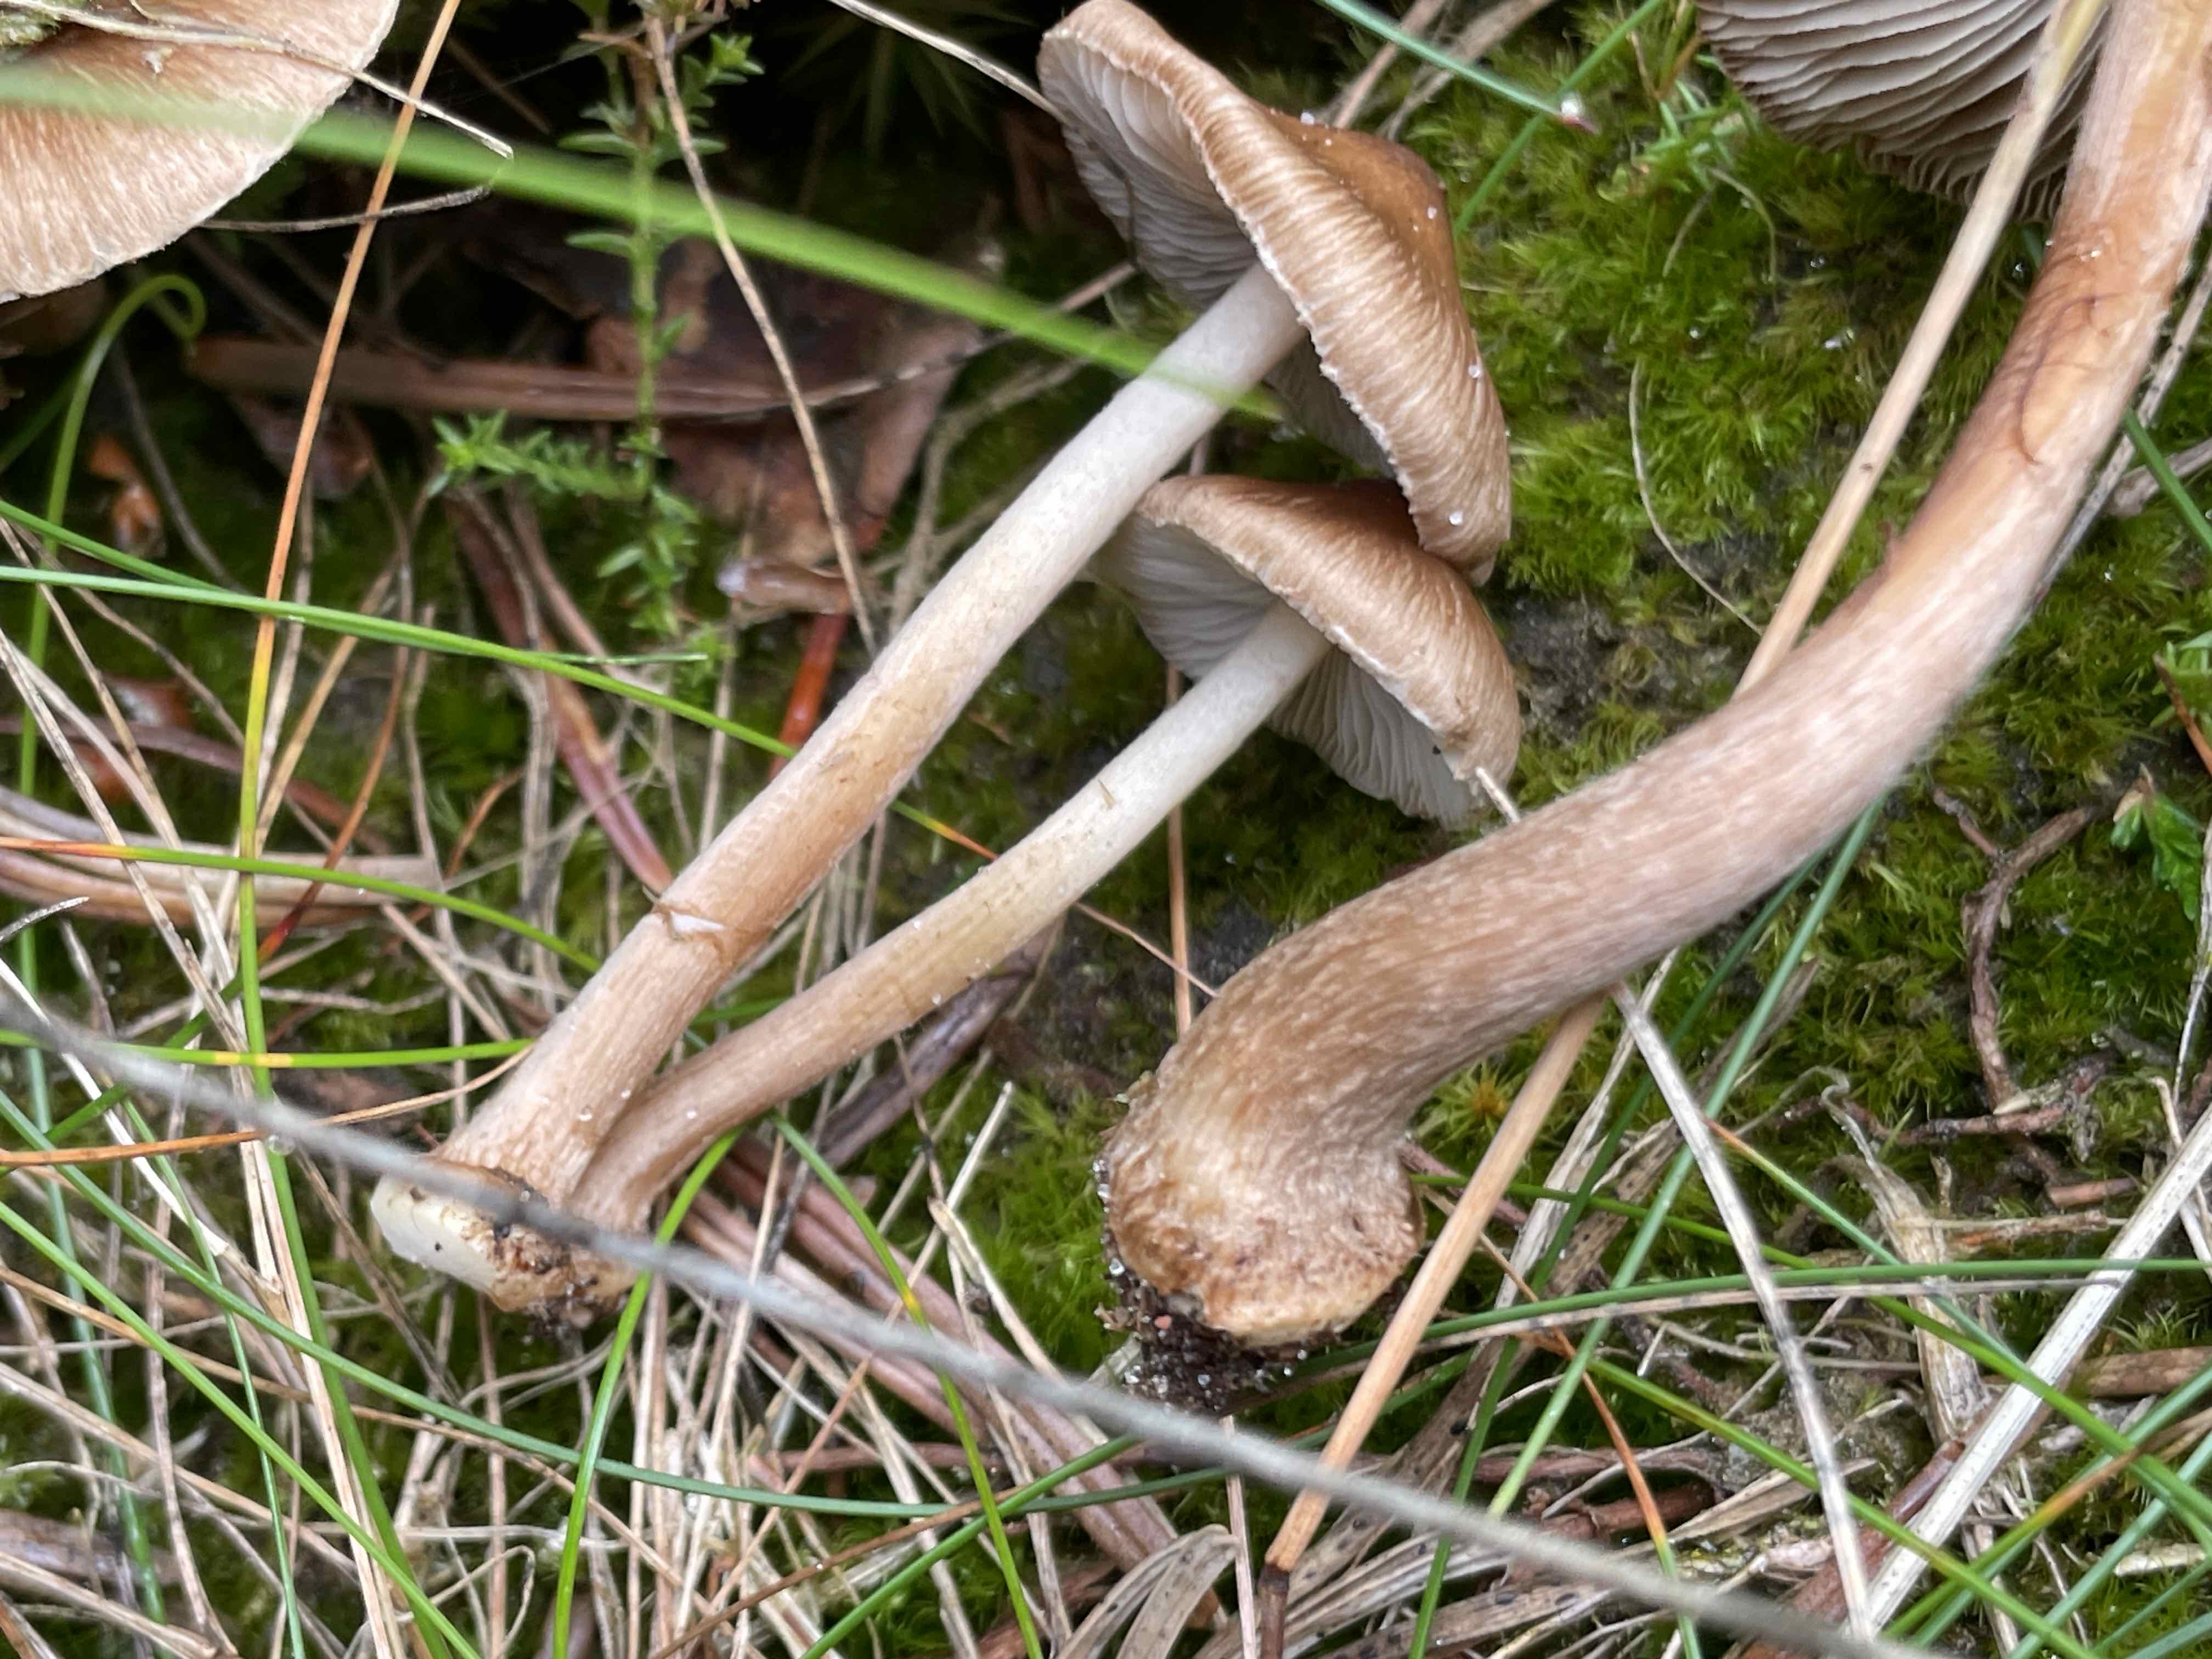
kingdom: Fungi
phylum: Basidiomycota
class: Agaricomycetes
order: Agaricales
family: Inocybaceae
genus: Inocybe
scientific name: Inocybe
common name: trævlhat
